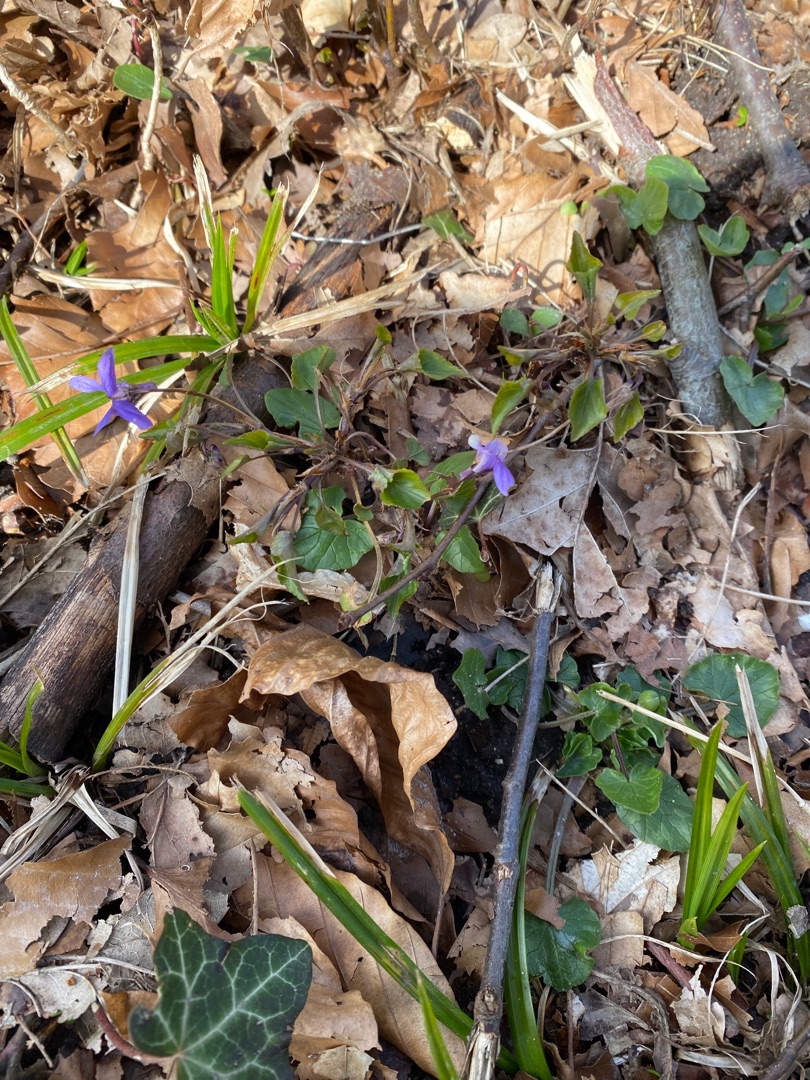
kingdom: Plantae
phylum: Tracheophyta
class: Magnoliopsida
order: Malpighiales
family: Violaceae
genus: Viola
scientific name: Viola odorata
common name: Marts-viol
